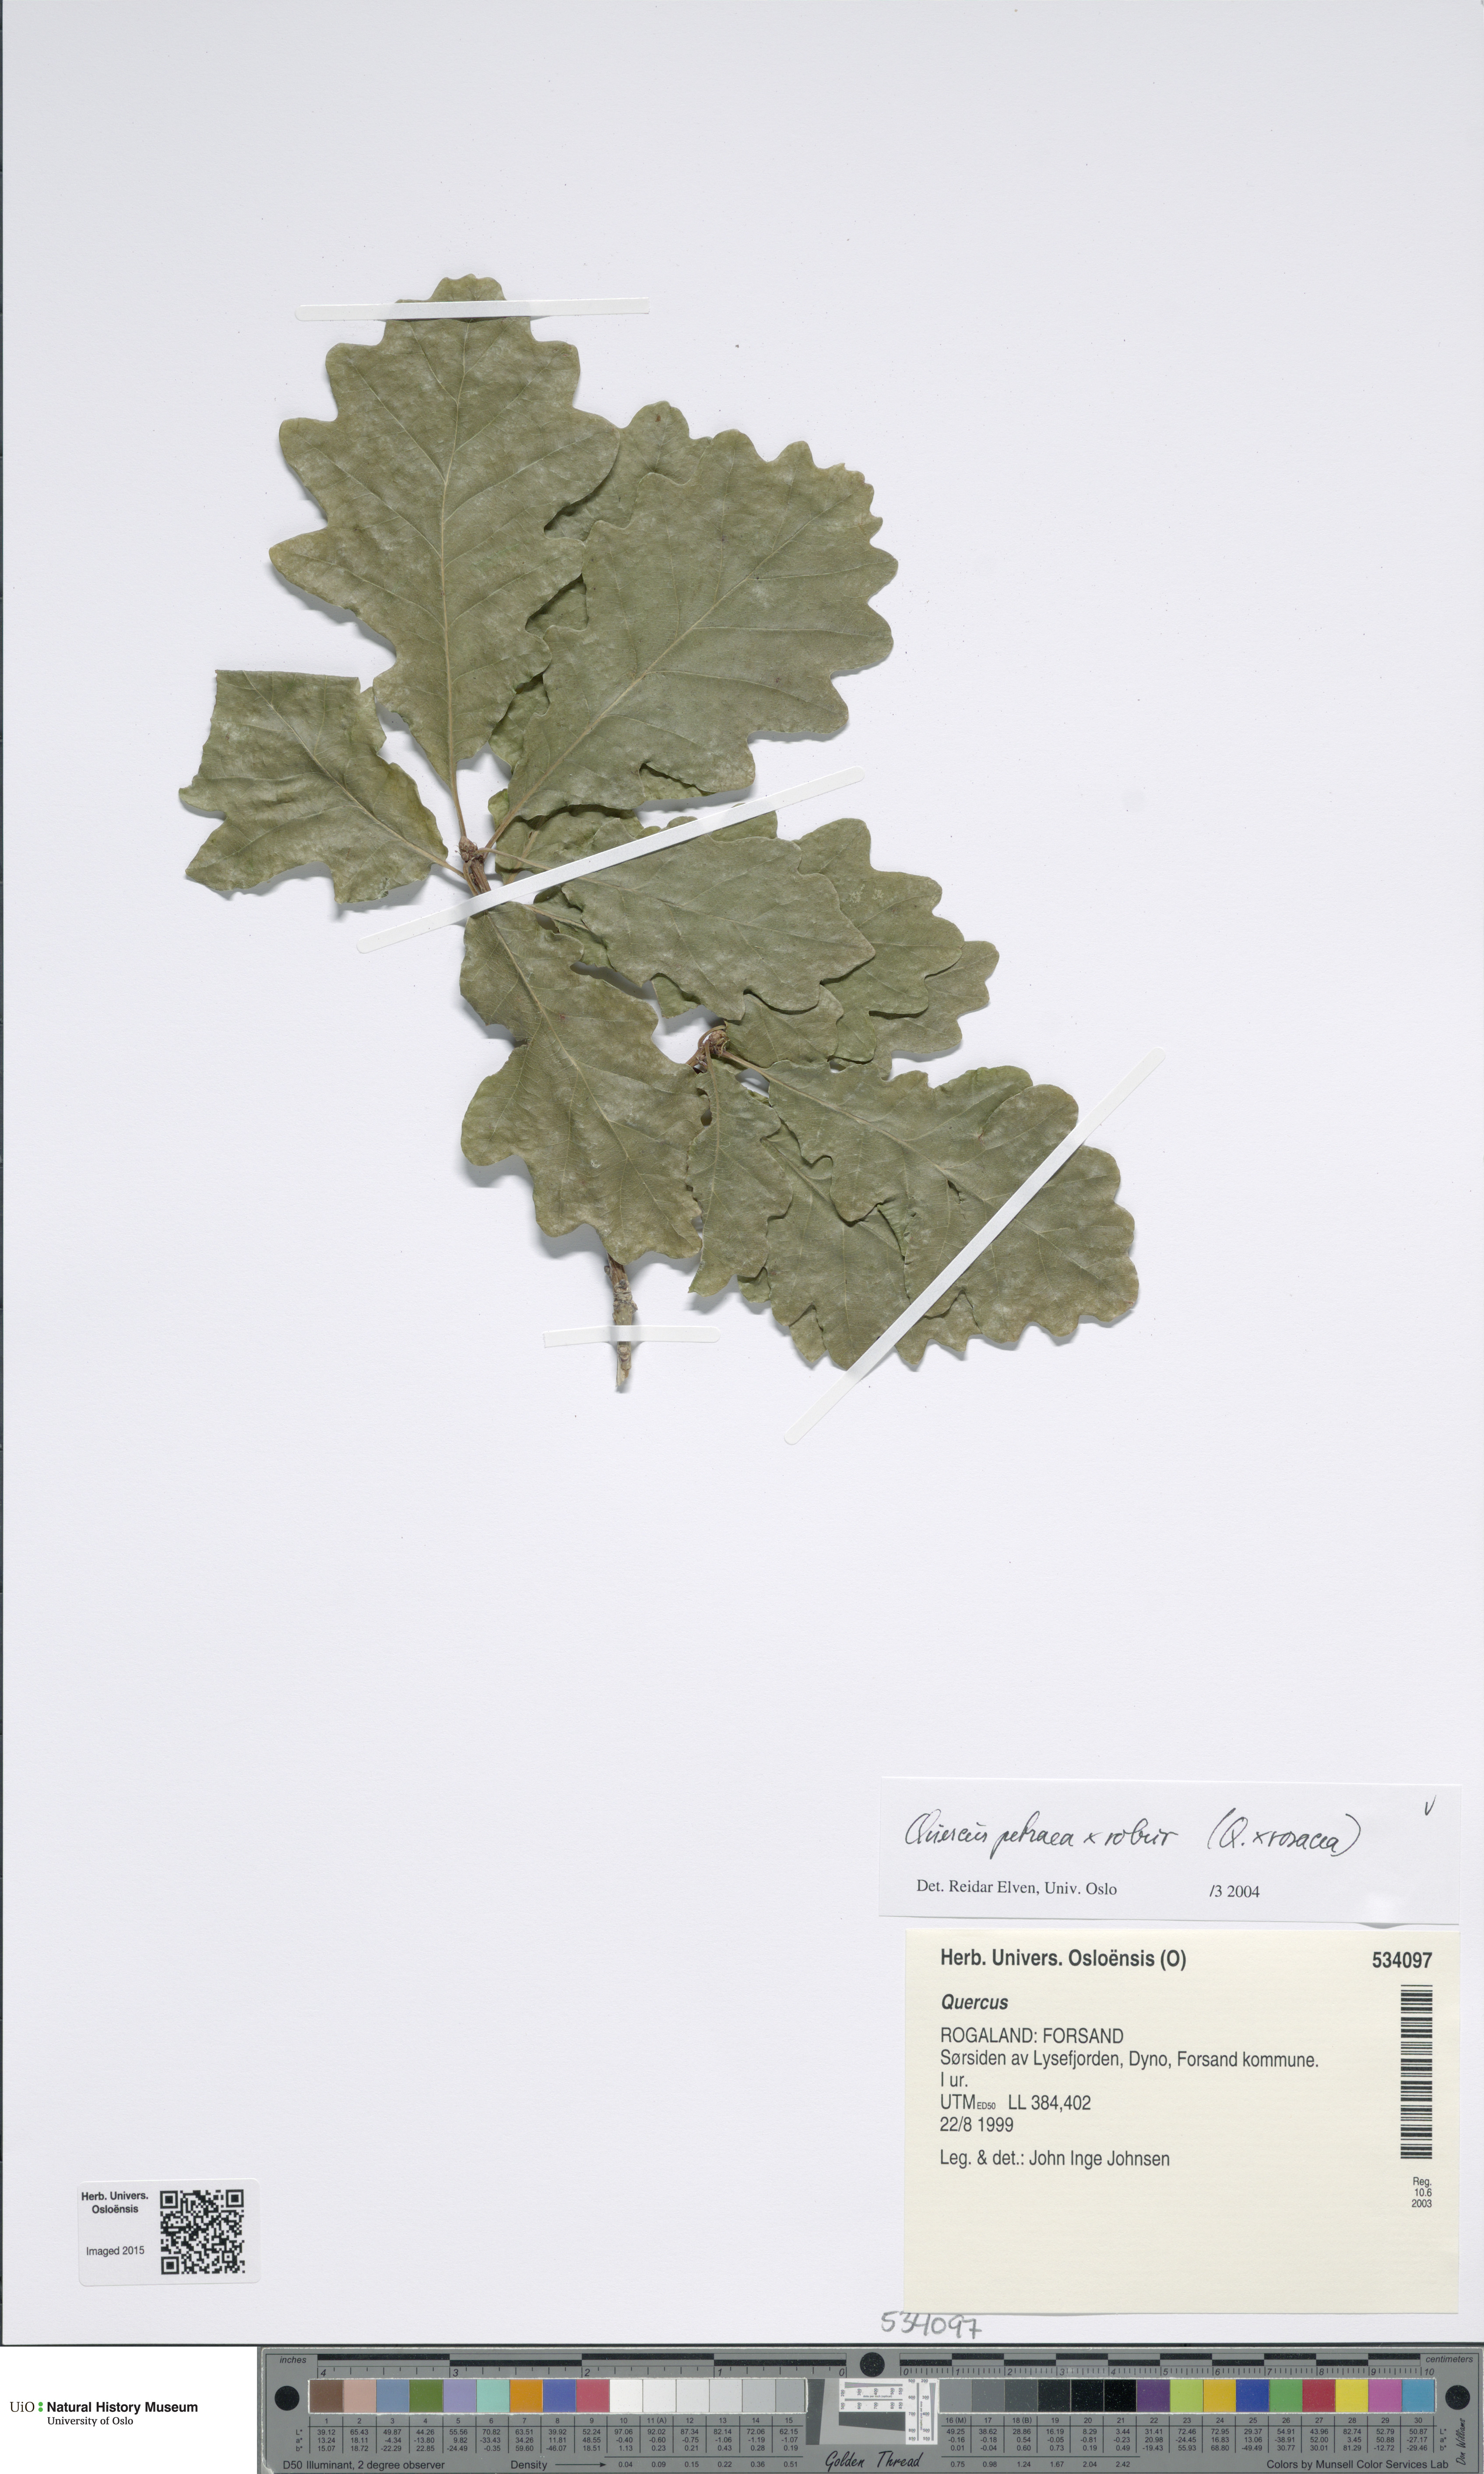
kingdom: Plantae
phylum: Tracheophyta
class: Magnoliopsida
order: Fagales
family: Fagaceae
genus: Quercus
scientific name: Quercus
